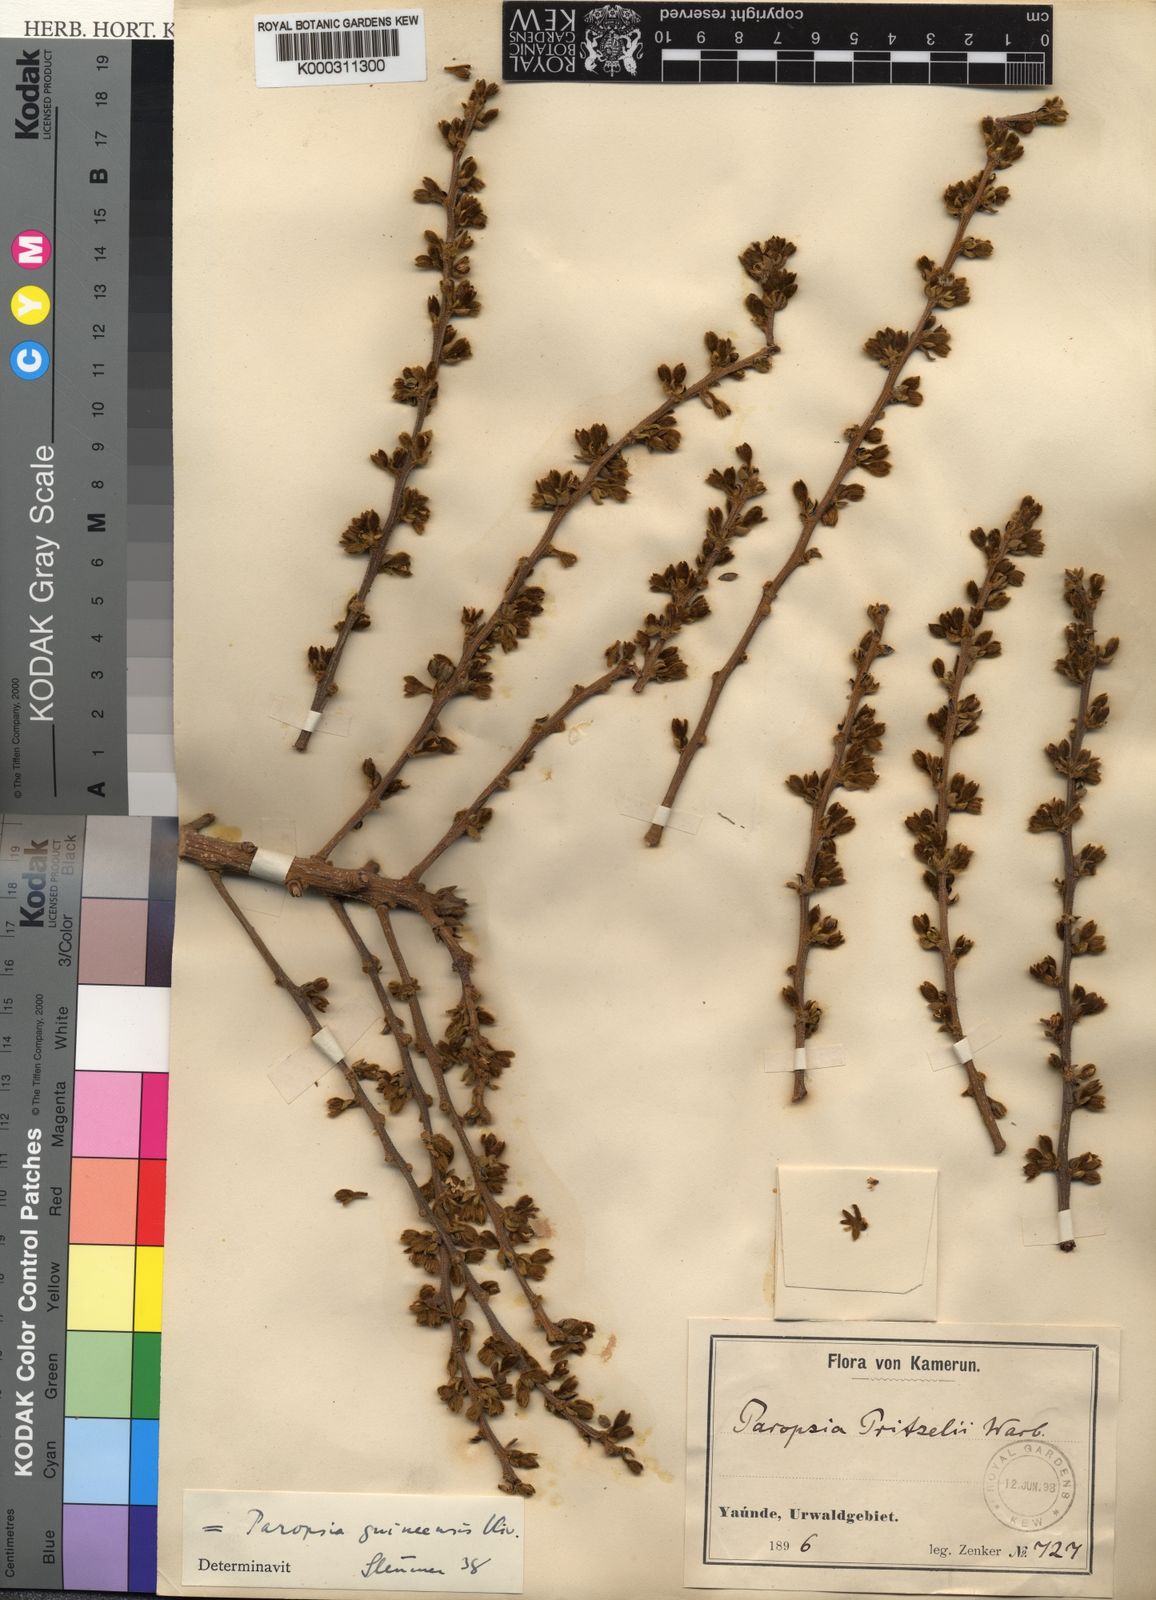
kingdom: Plantae
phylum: Tracheophyta
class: Magnoliopsida
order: Malpighiales
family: Passifloraceae
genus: Paropsia
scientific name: Paropsia guineensis
